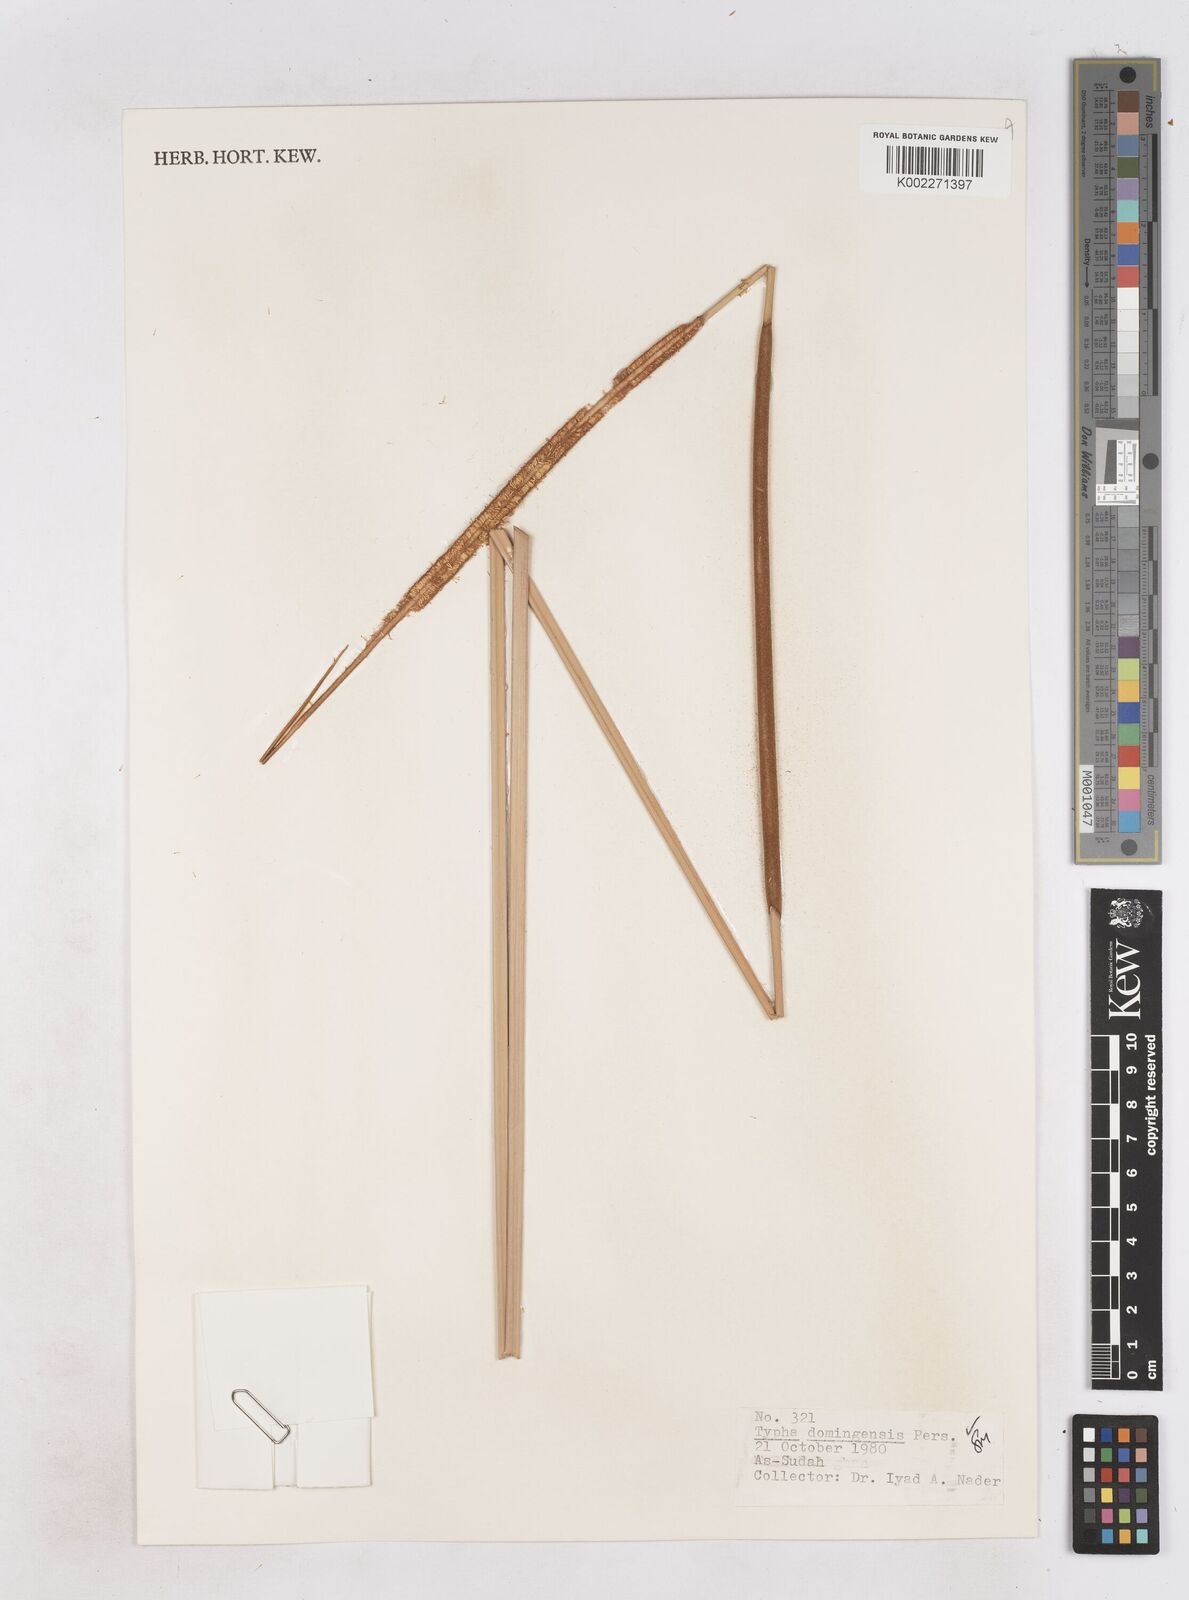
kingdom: Plantae
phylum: Tracheophyta
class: Liliopsida
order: Poales
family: Typhaceae
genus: Typha
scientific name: Typha domingensis
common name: Southern cattail
